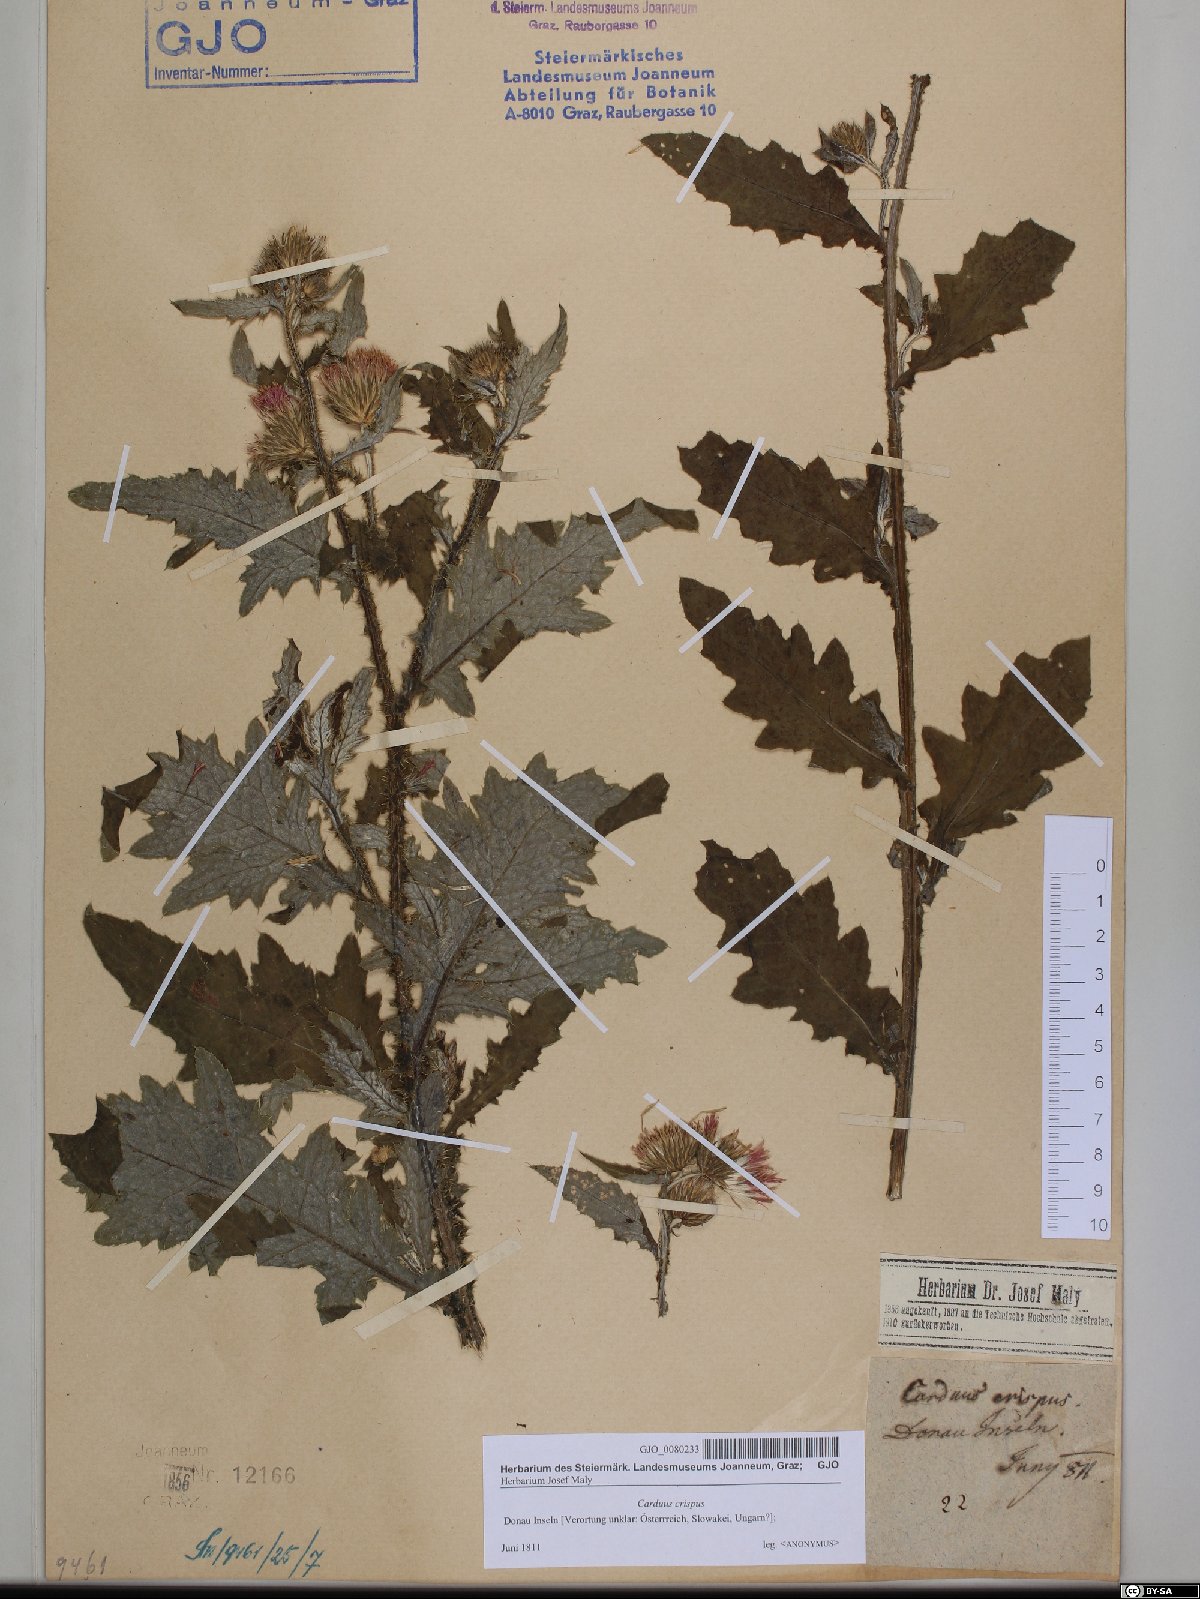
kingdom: Plantae
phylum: Tracheophyta
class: Magnoliopsida
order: Asterales
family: Asteraceae
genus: Carduus
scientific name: Carduus crispus
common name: Welted thistle
